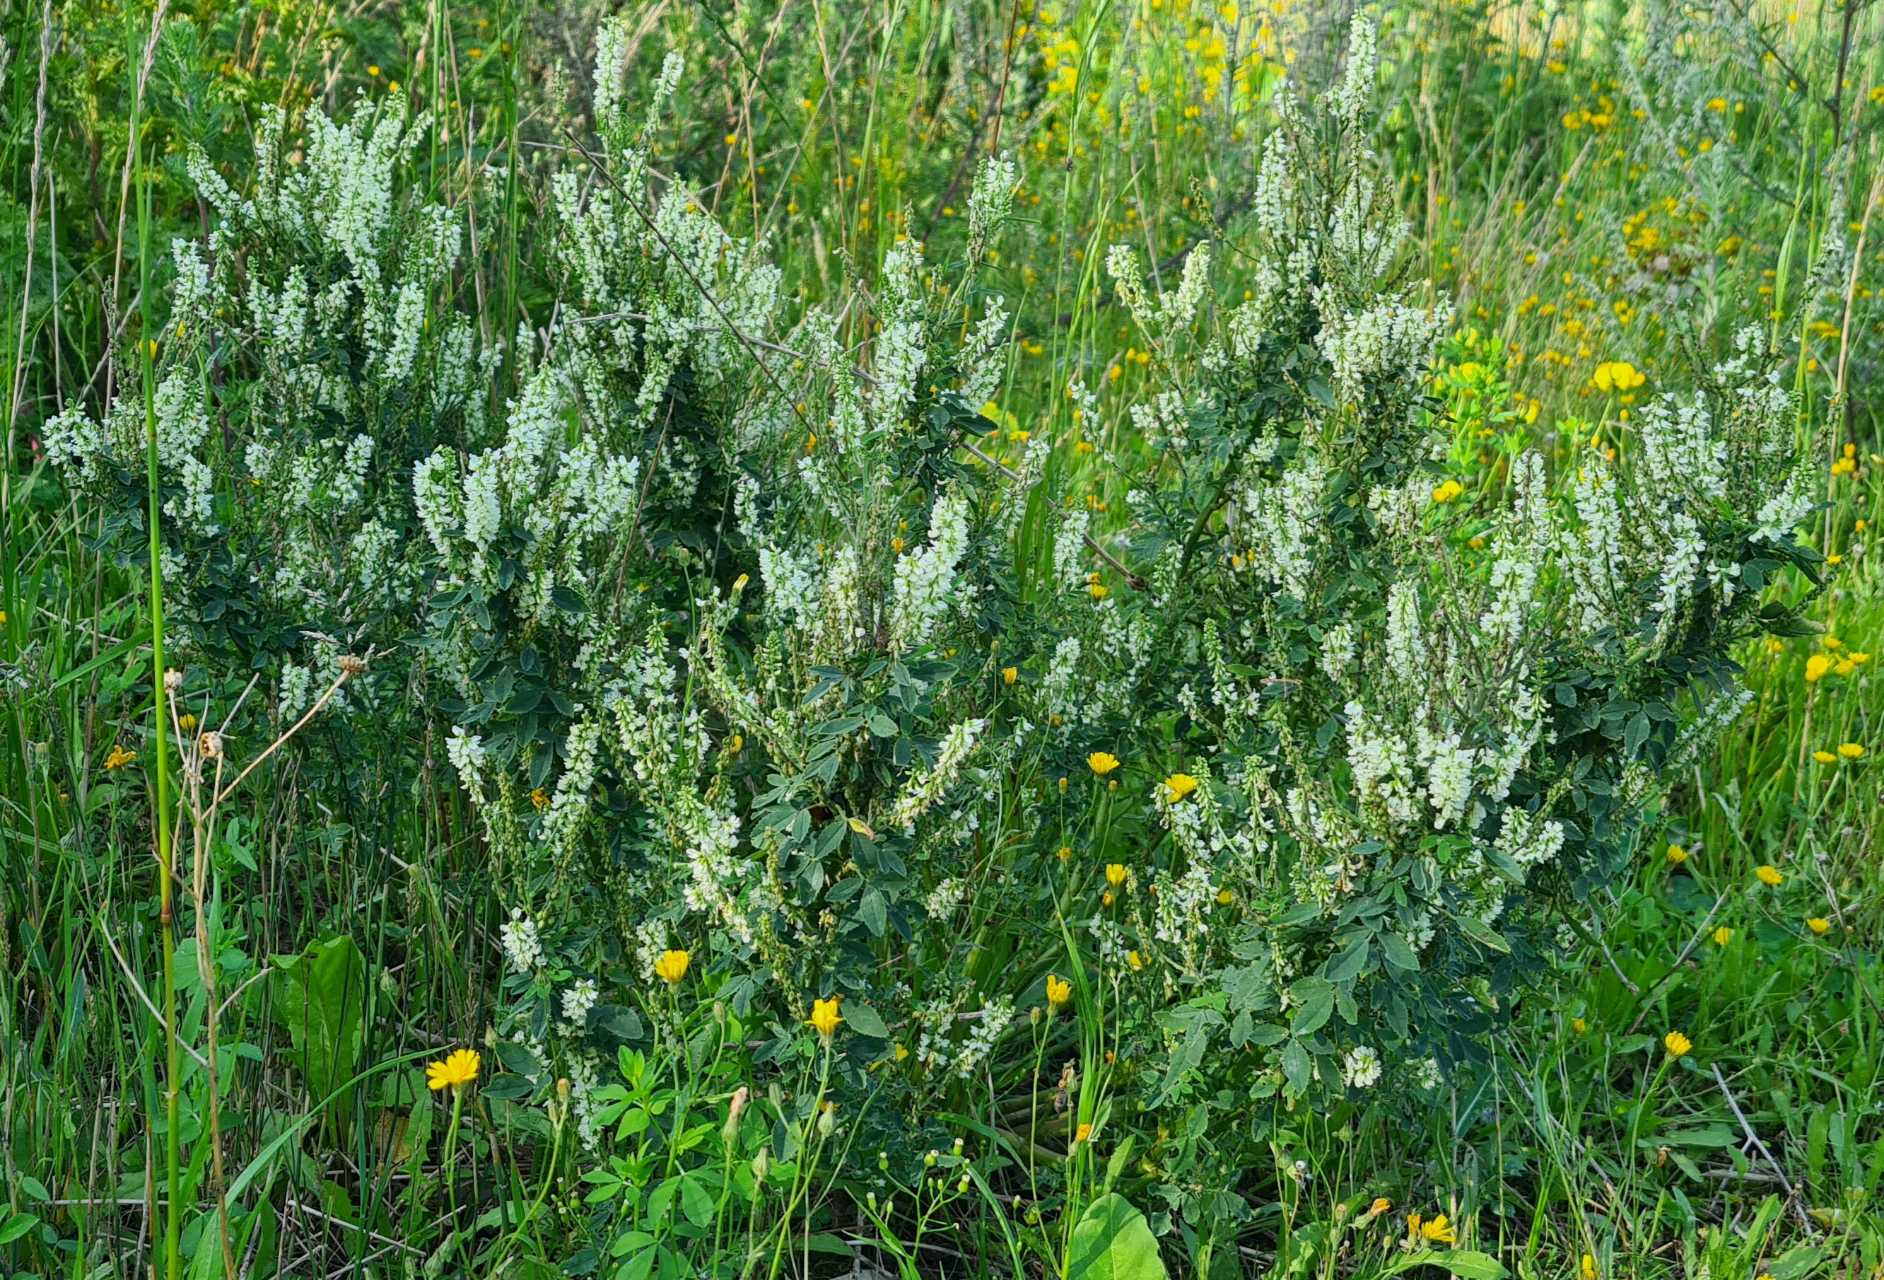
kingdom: Plantae
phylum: Tracheophyta
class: Magnoliopsida
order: Fabales
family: Fabaceae
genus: Melilotus
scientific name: Melilotus albus
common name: Hvid stenkløver
